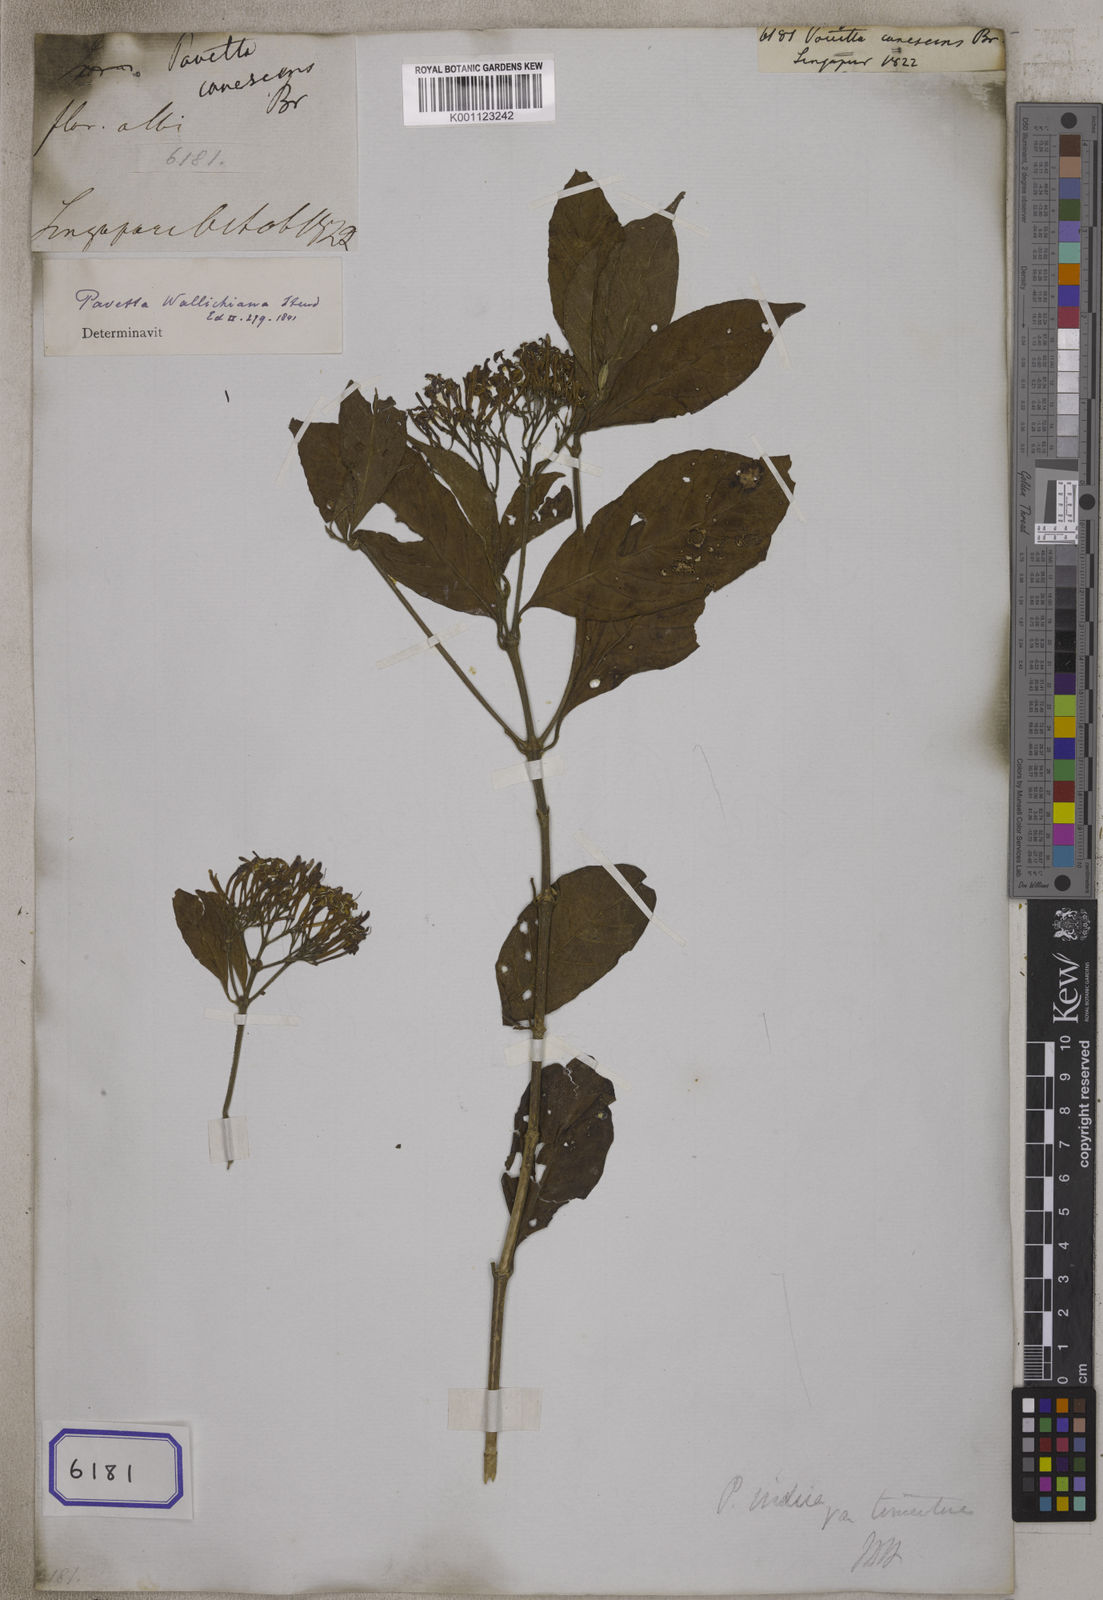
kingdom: Plantae
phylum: Tracheophyta
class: Magnoliopsida
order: Gentianales
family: Rubiaceae
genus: Pavetta
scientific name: Pavetta
